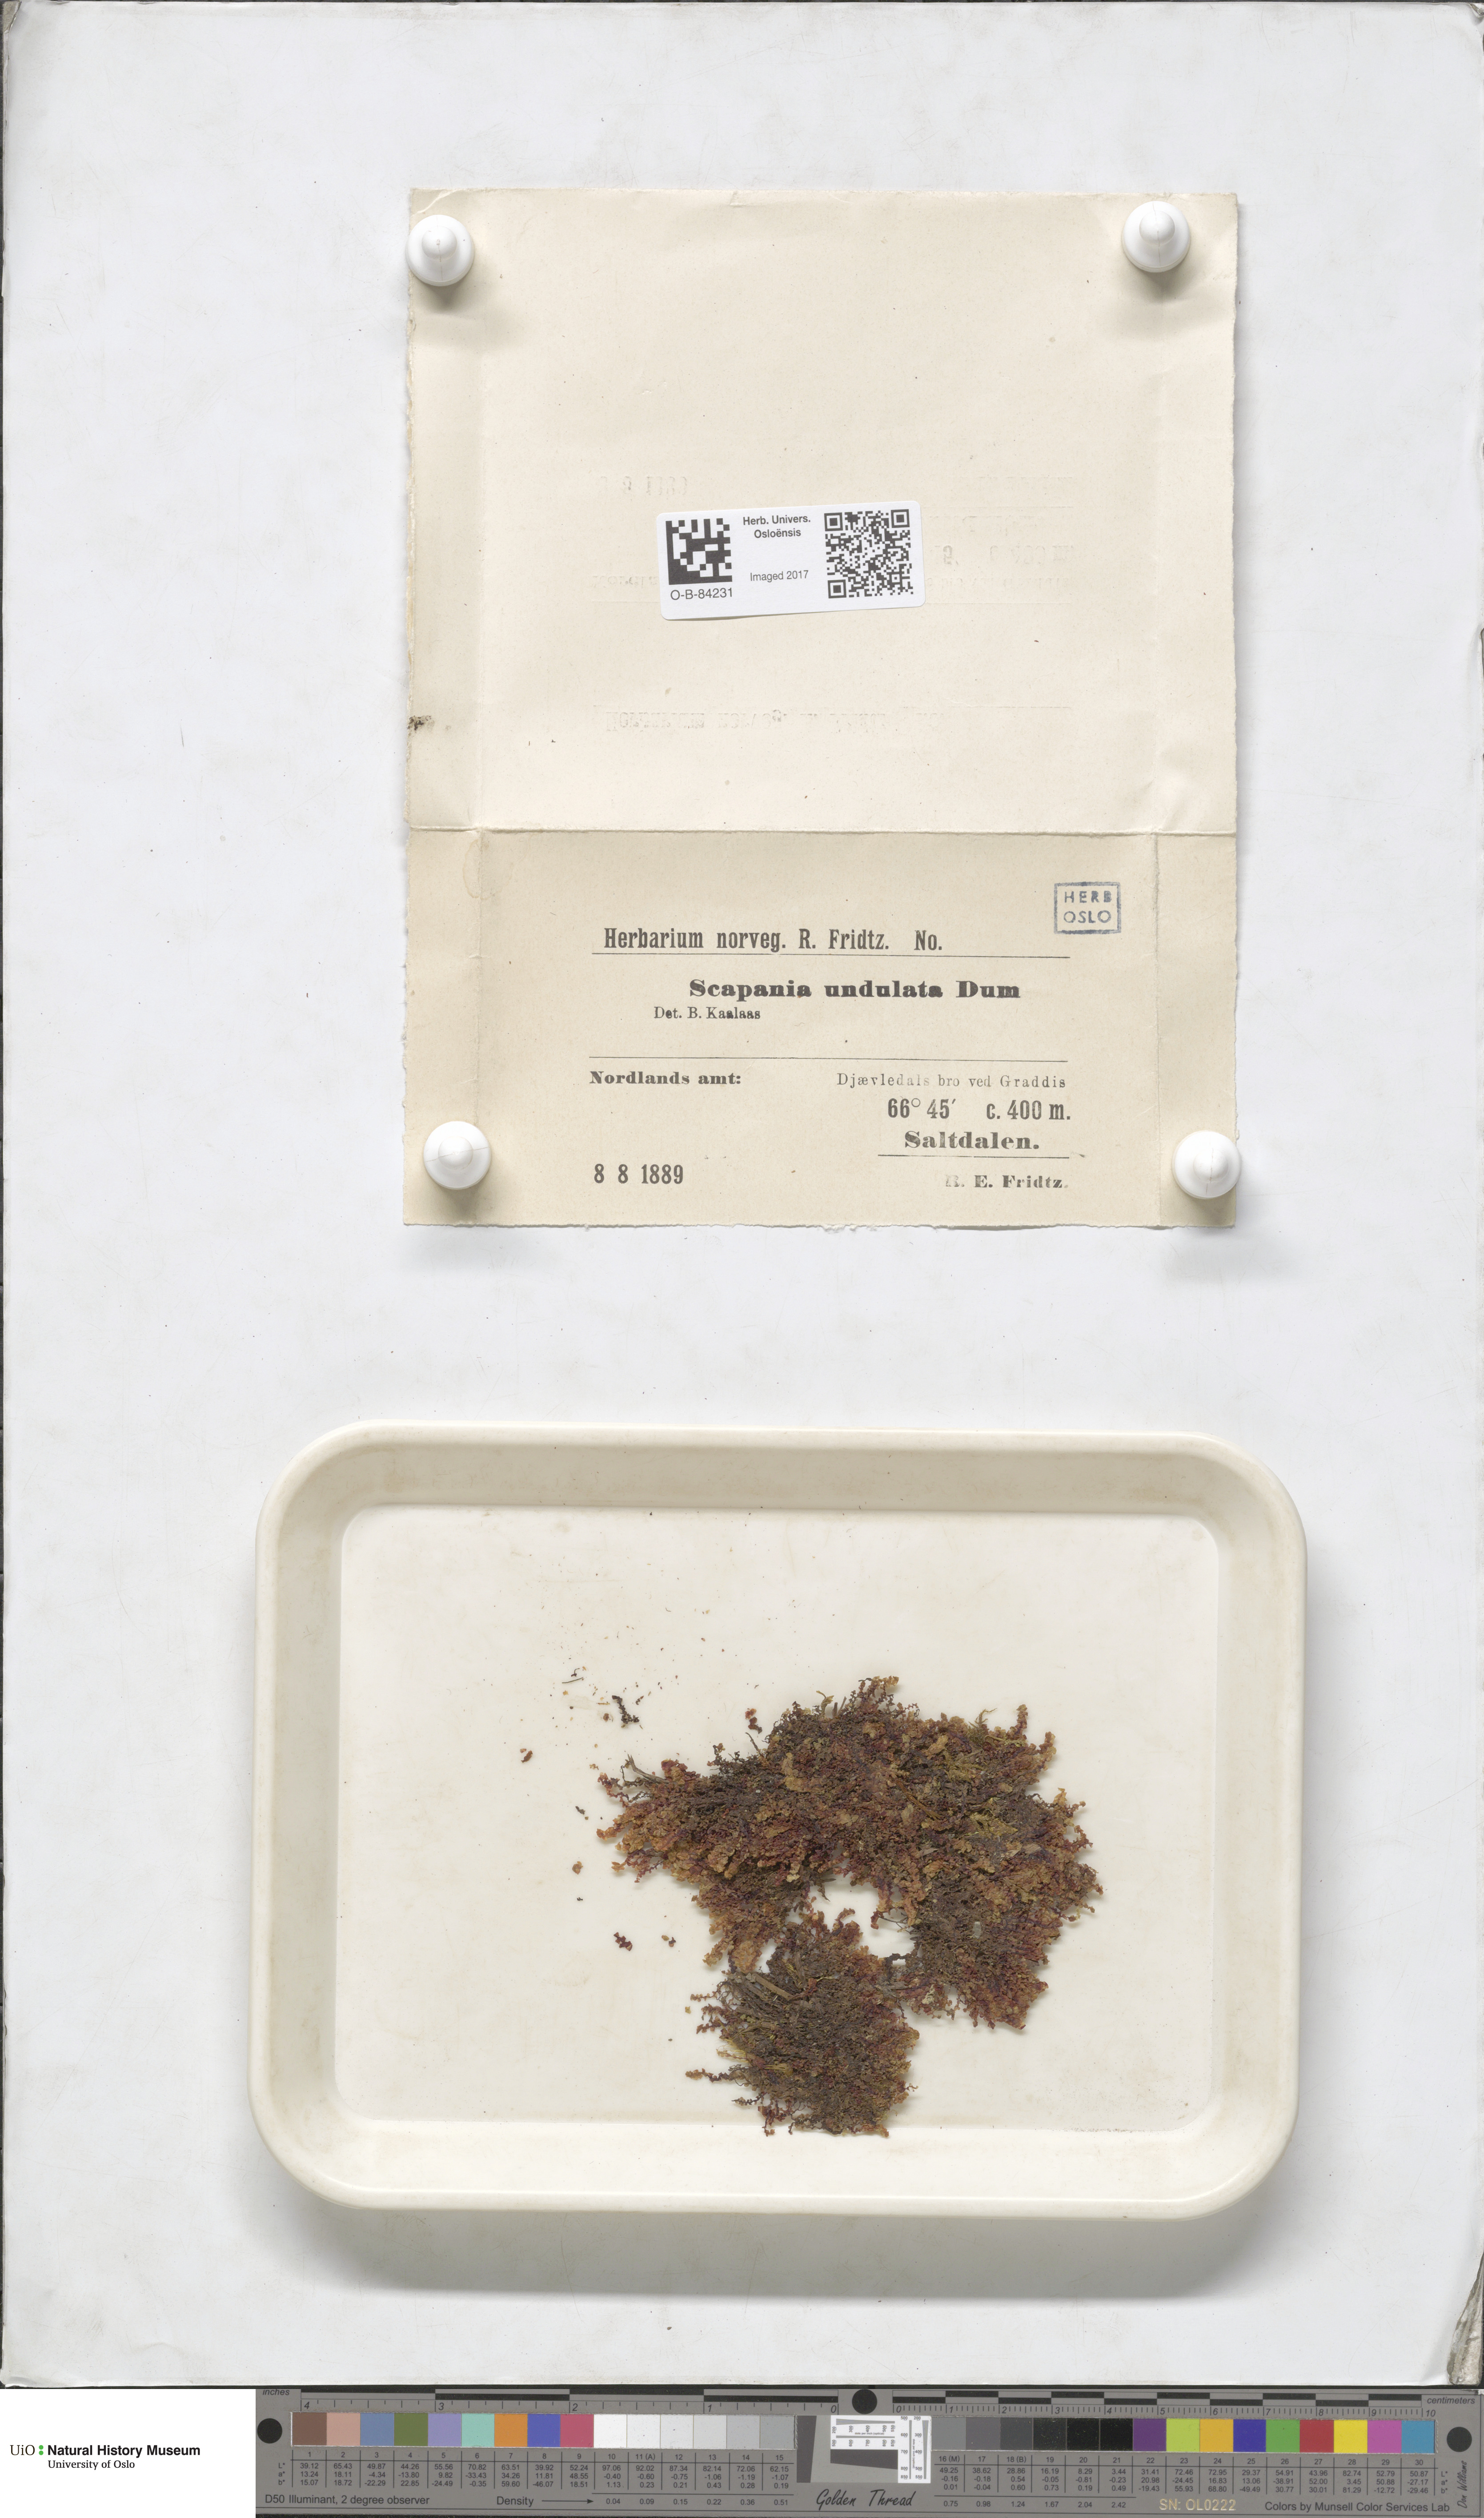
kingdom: Plantae
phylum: Marchantiophyta
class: Jungermanniopsida
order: Jungermanniales
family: Scapaniaceae
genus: Scapania
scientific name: Scapania undulata
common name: Water earwort
